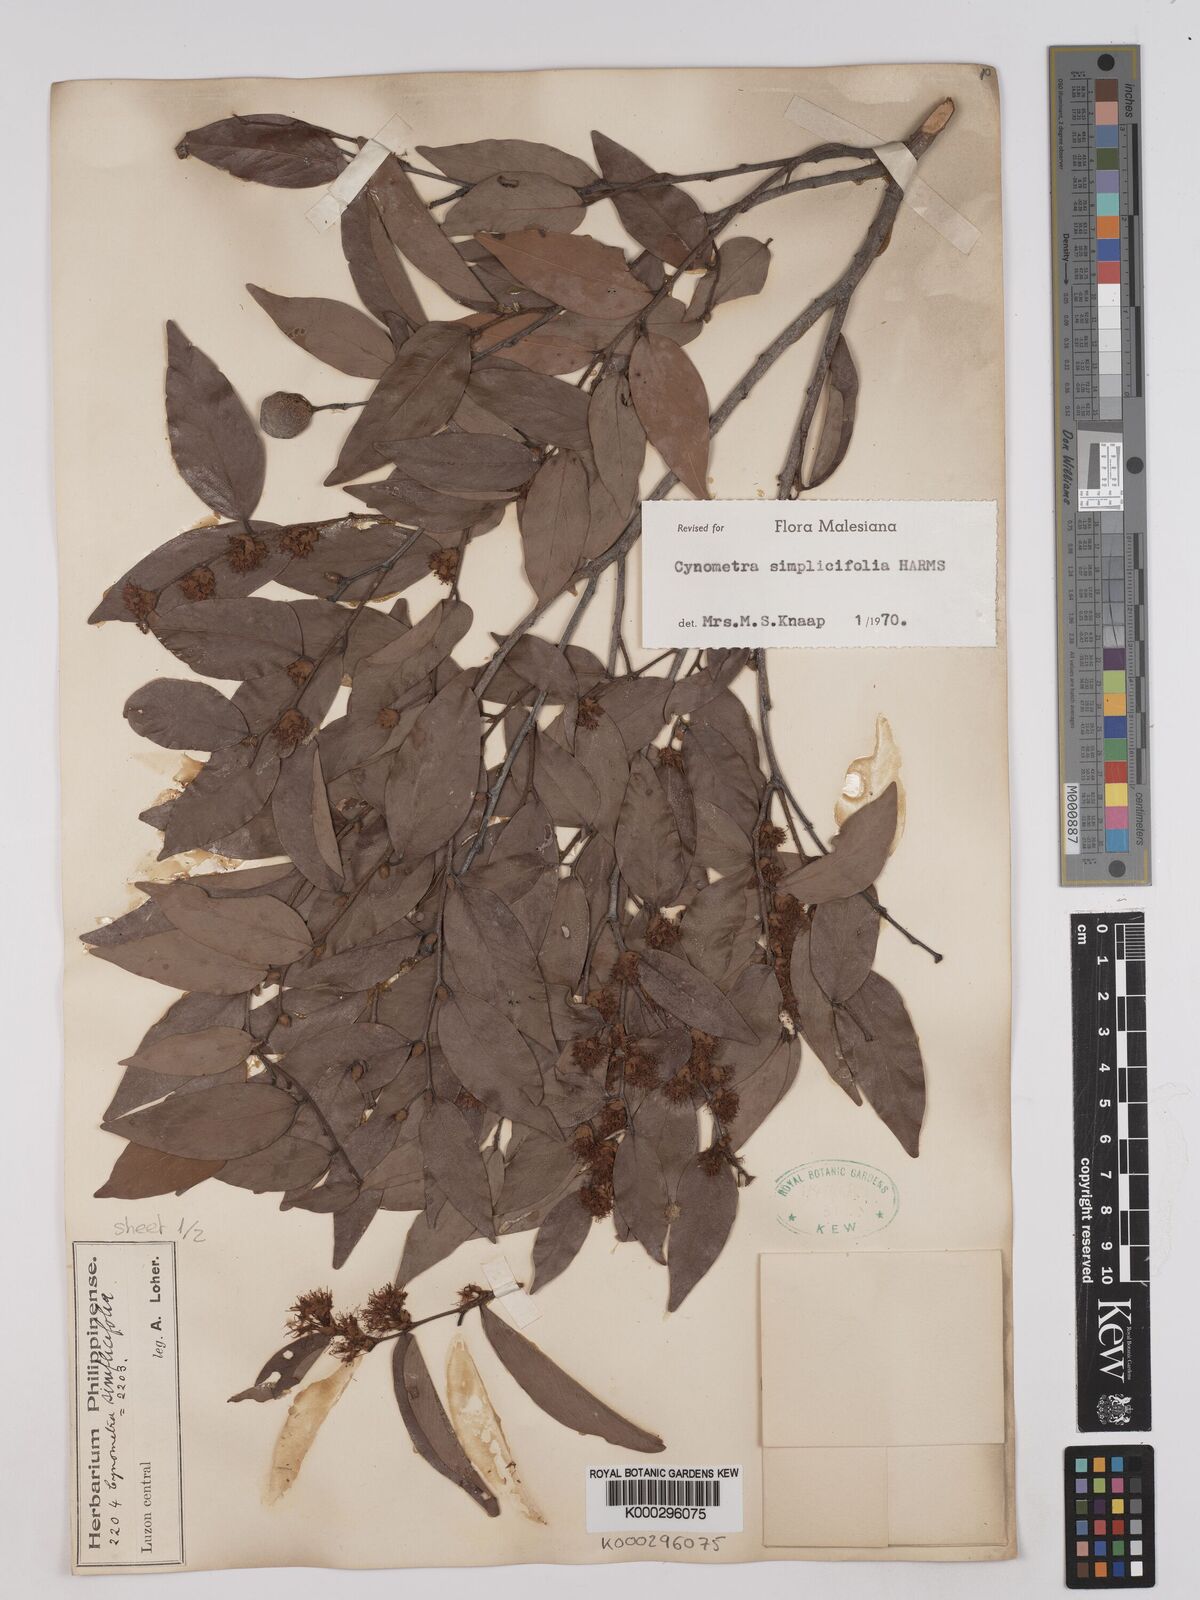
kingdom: Plantae
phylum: Tracheophyta
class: Magnoliopsida
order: Fabales
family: Fabaceae
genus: Cynometra
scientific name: Cynometra simplicifolia
